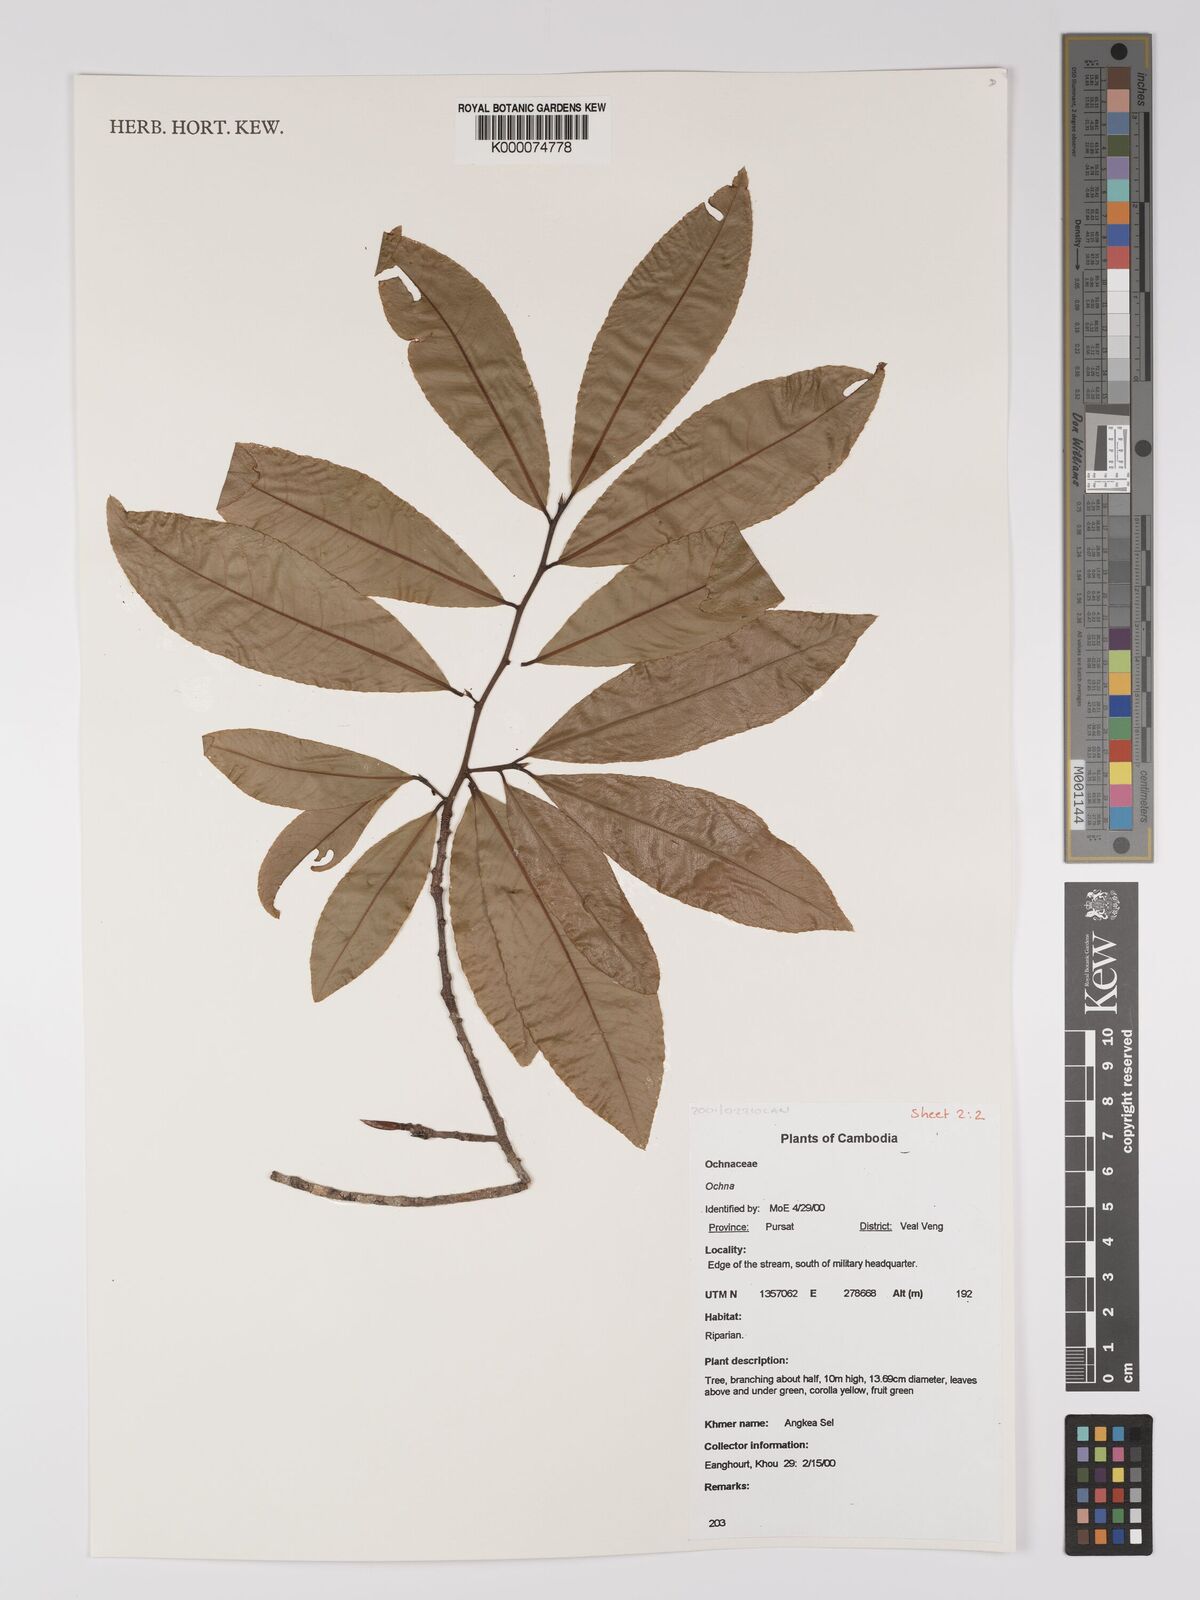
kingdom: Plantae
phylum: Tracheophyta
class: Magnoliopsida
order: Malpighiales
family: Ochnaceae
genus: Ochna
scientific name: Ochna
